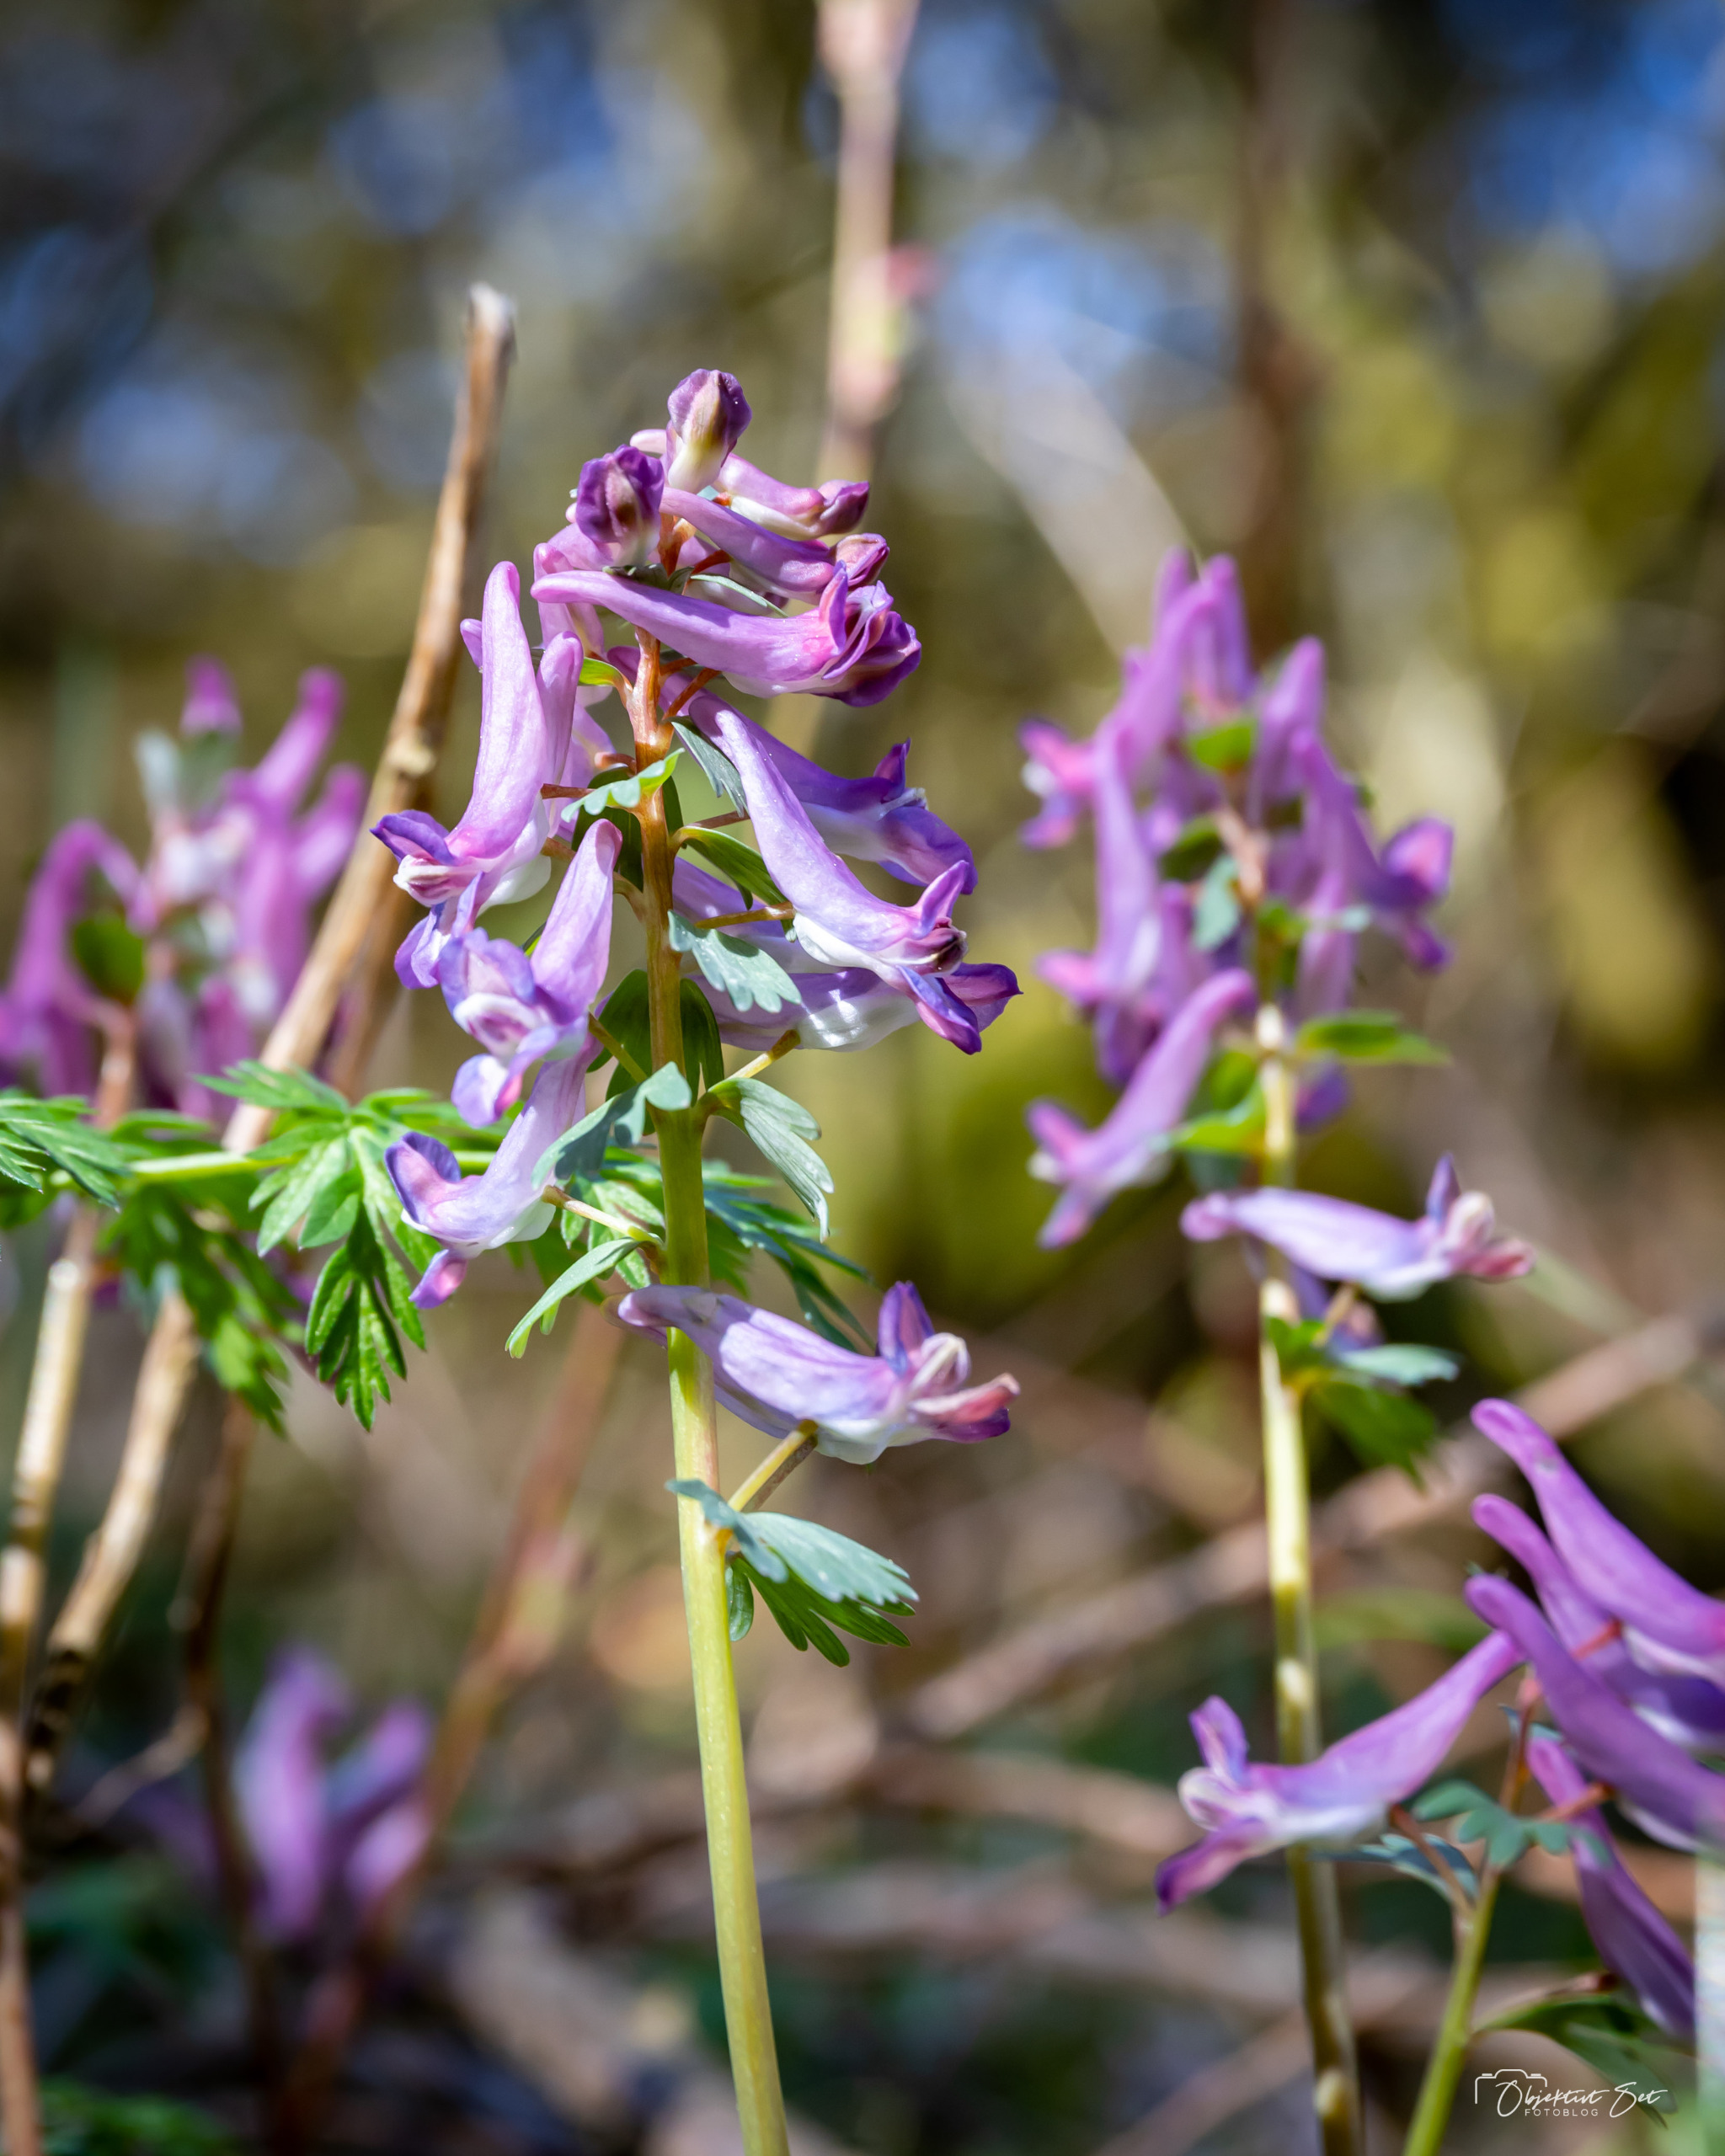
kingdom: Plantae
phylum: Tracheophyta
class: Magnoliopsida
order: Ranunculales
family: Papaveraceae
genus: Corydalis
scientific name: Corydalis solida
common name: Langstilket lærkespore
